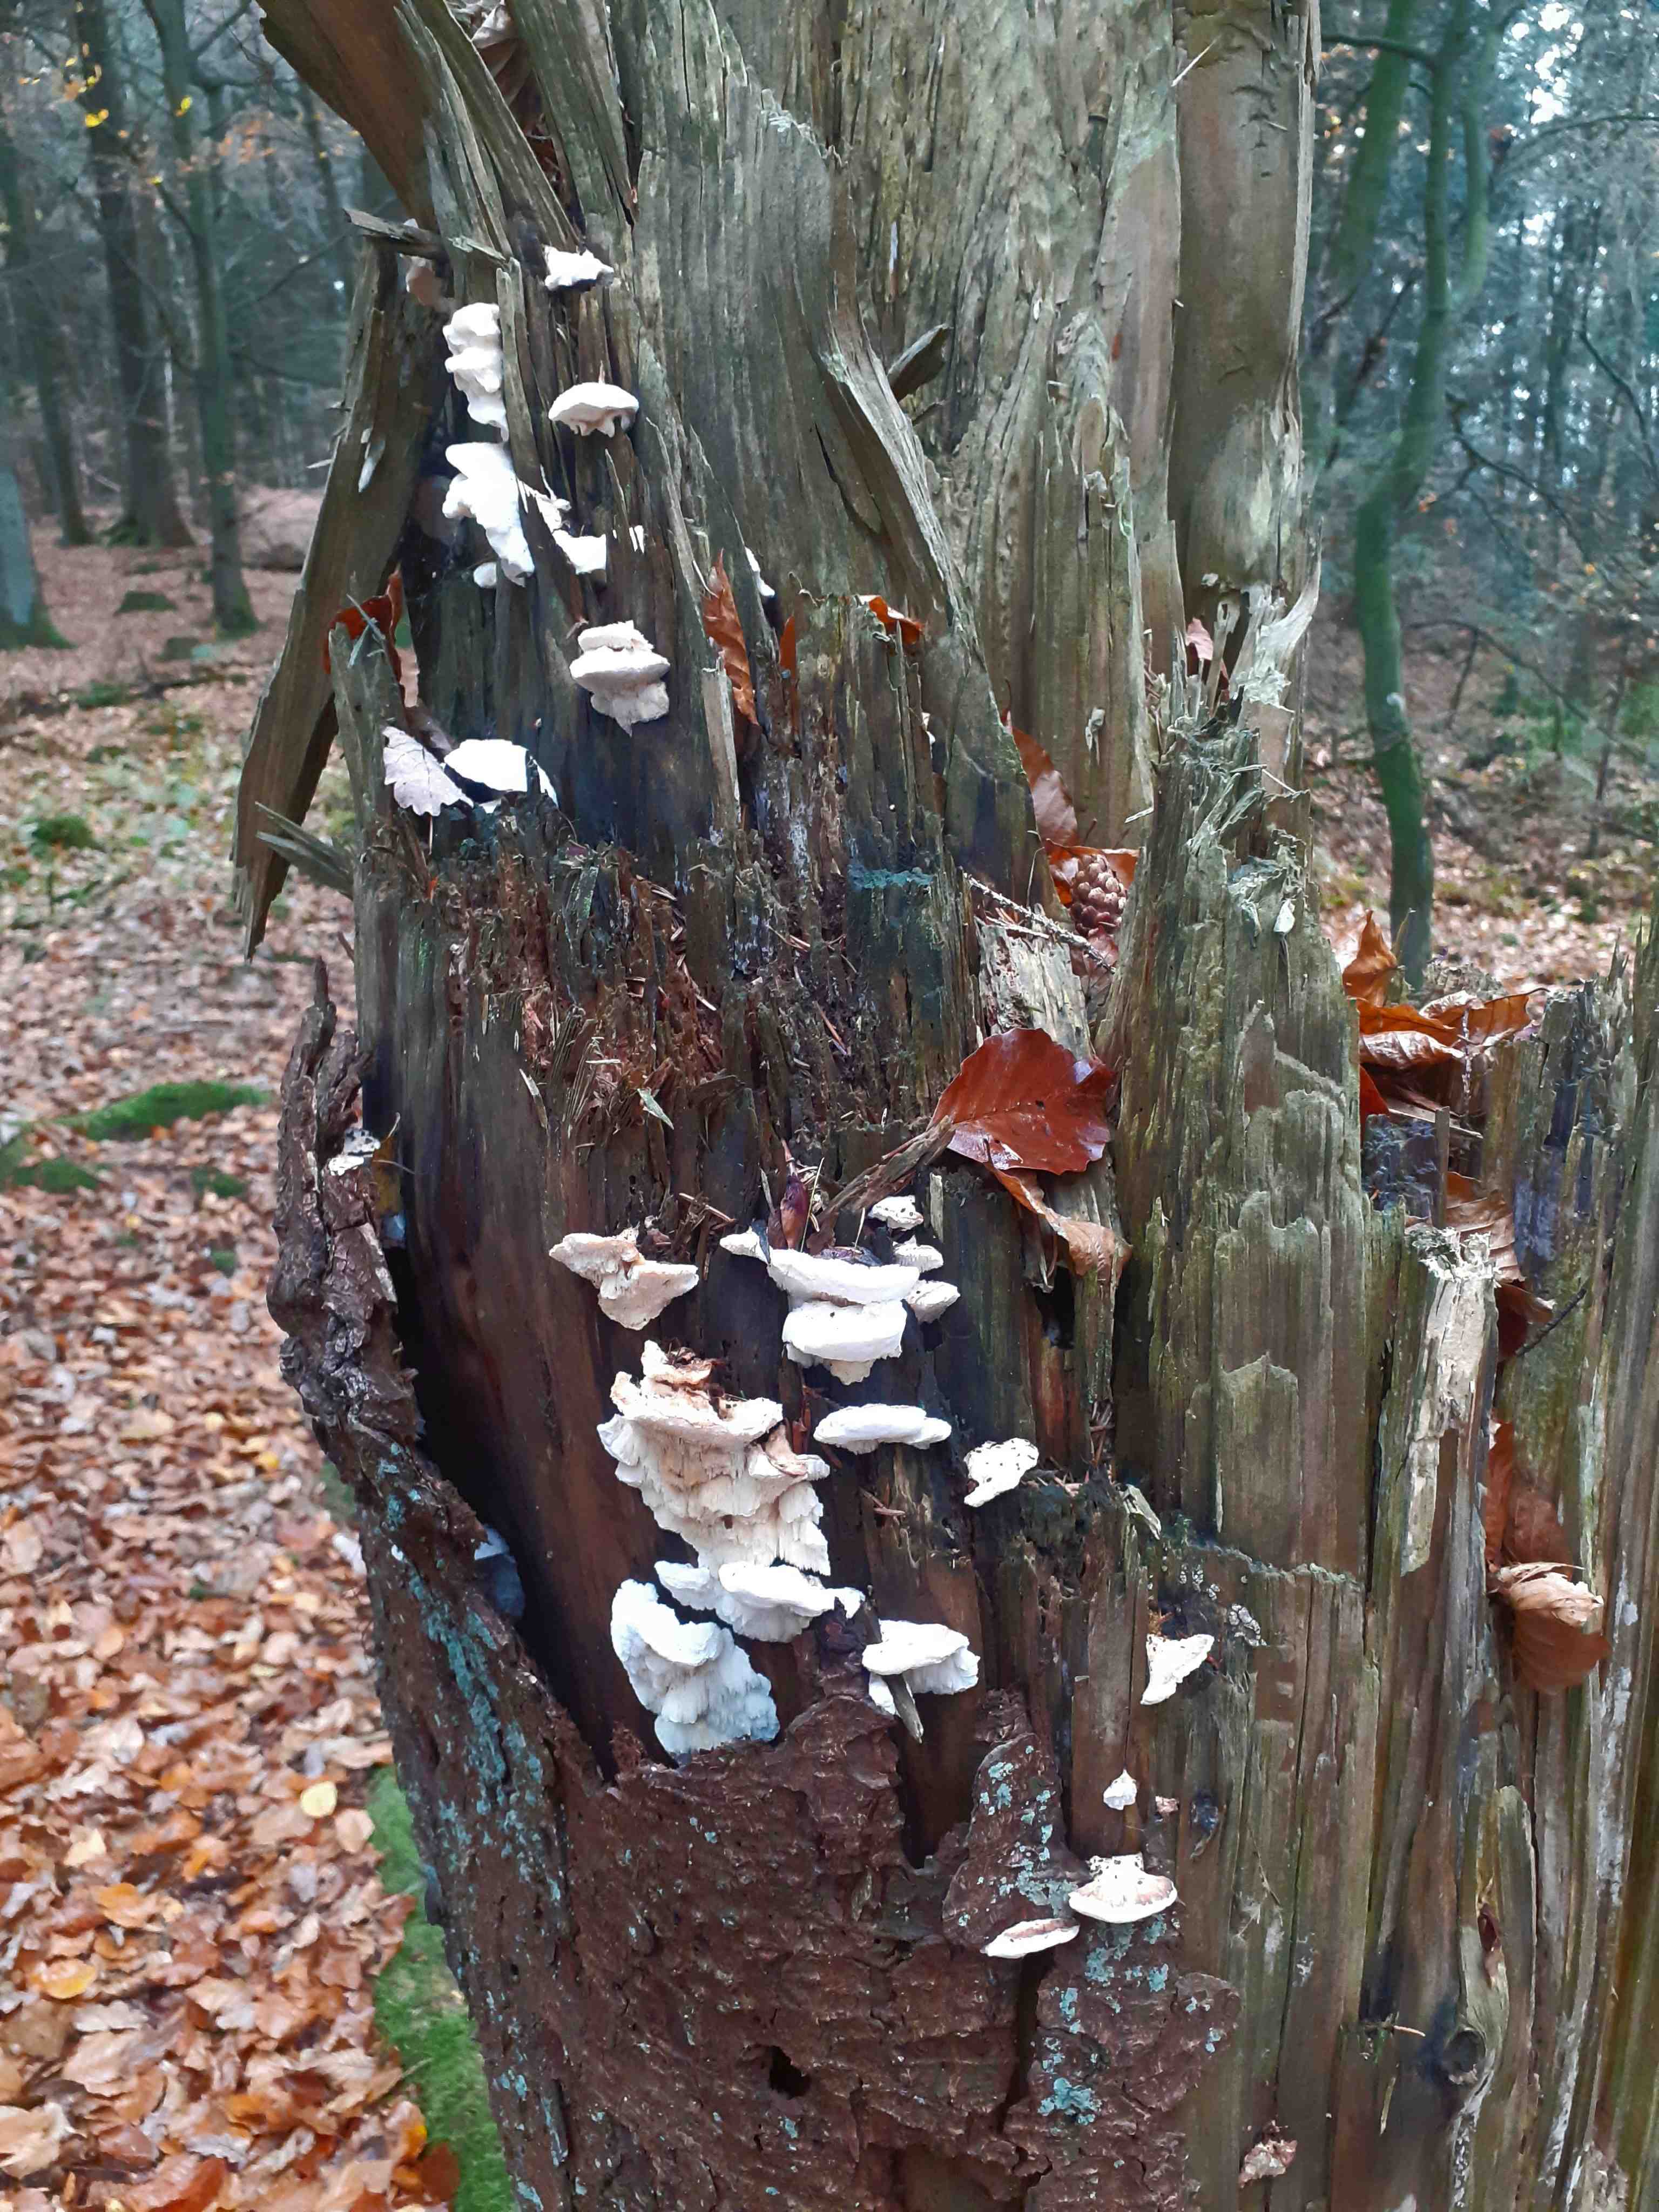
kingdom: Fungi
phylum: Basidiomycota
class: Agaricomycetes
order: Polyporales
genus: Fuscopostia
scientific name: Fuscopostia fragilis
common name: brunende kødporesvamp
